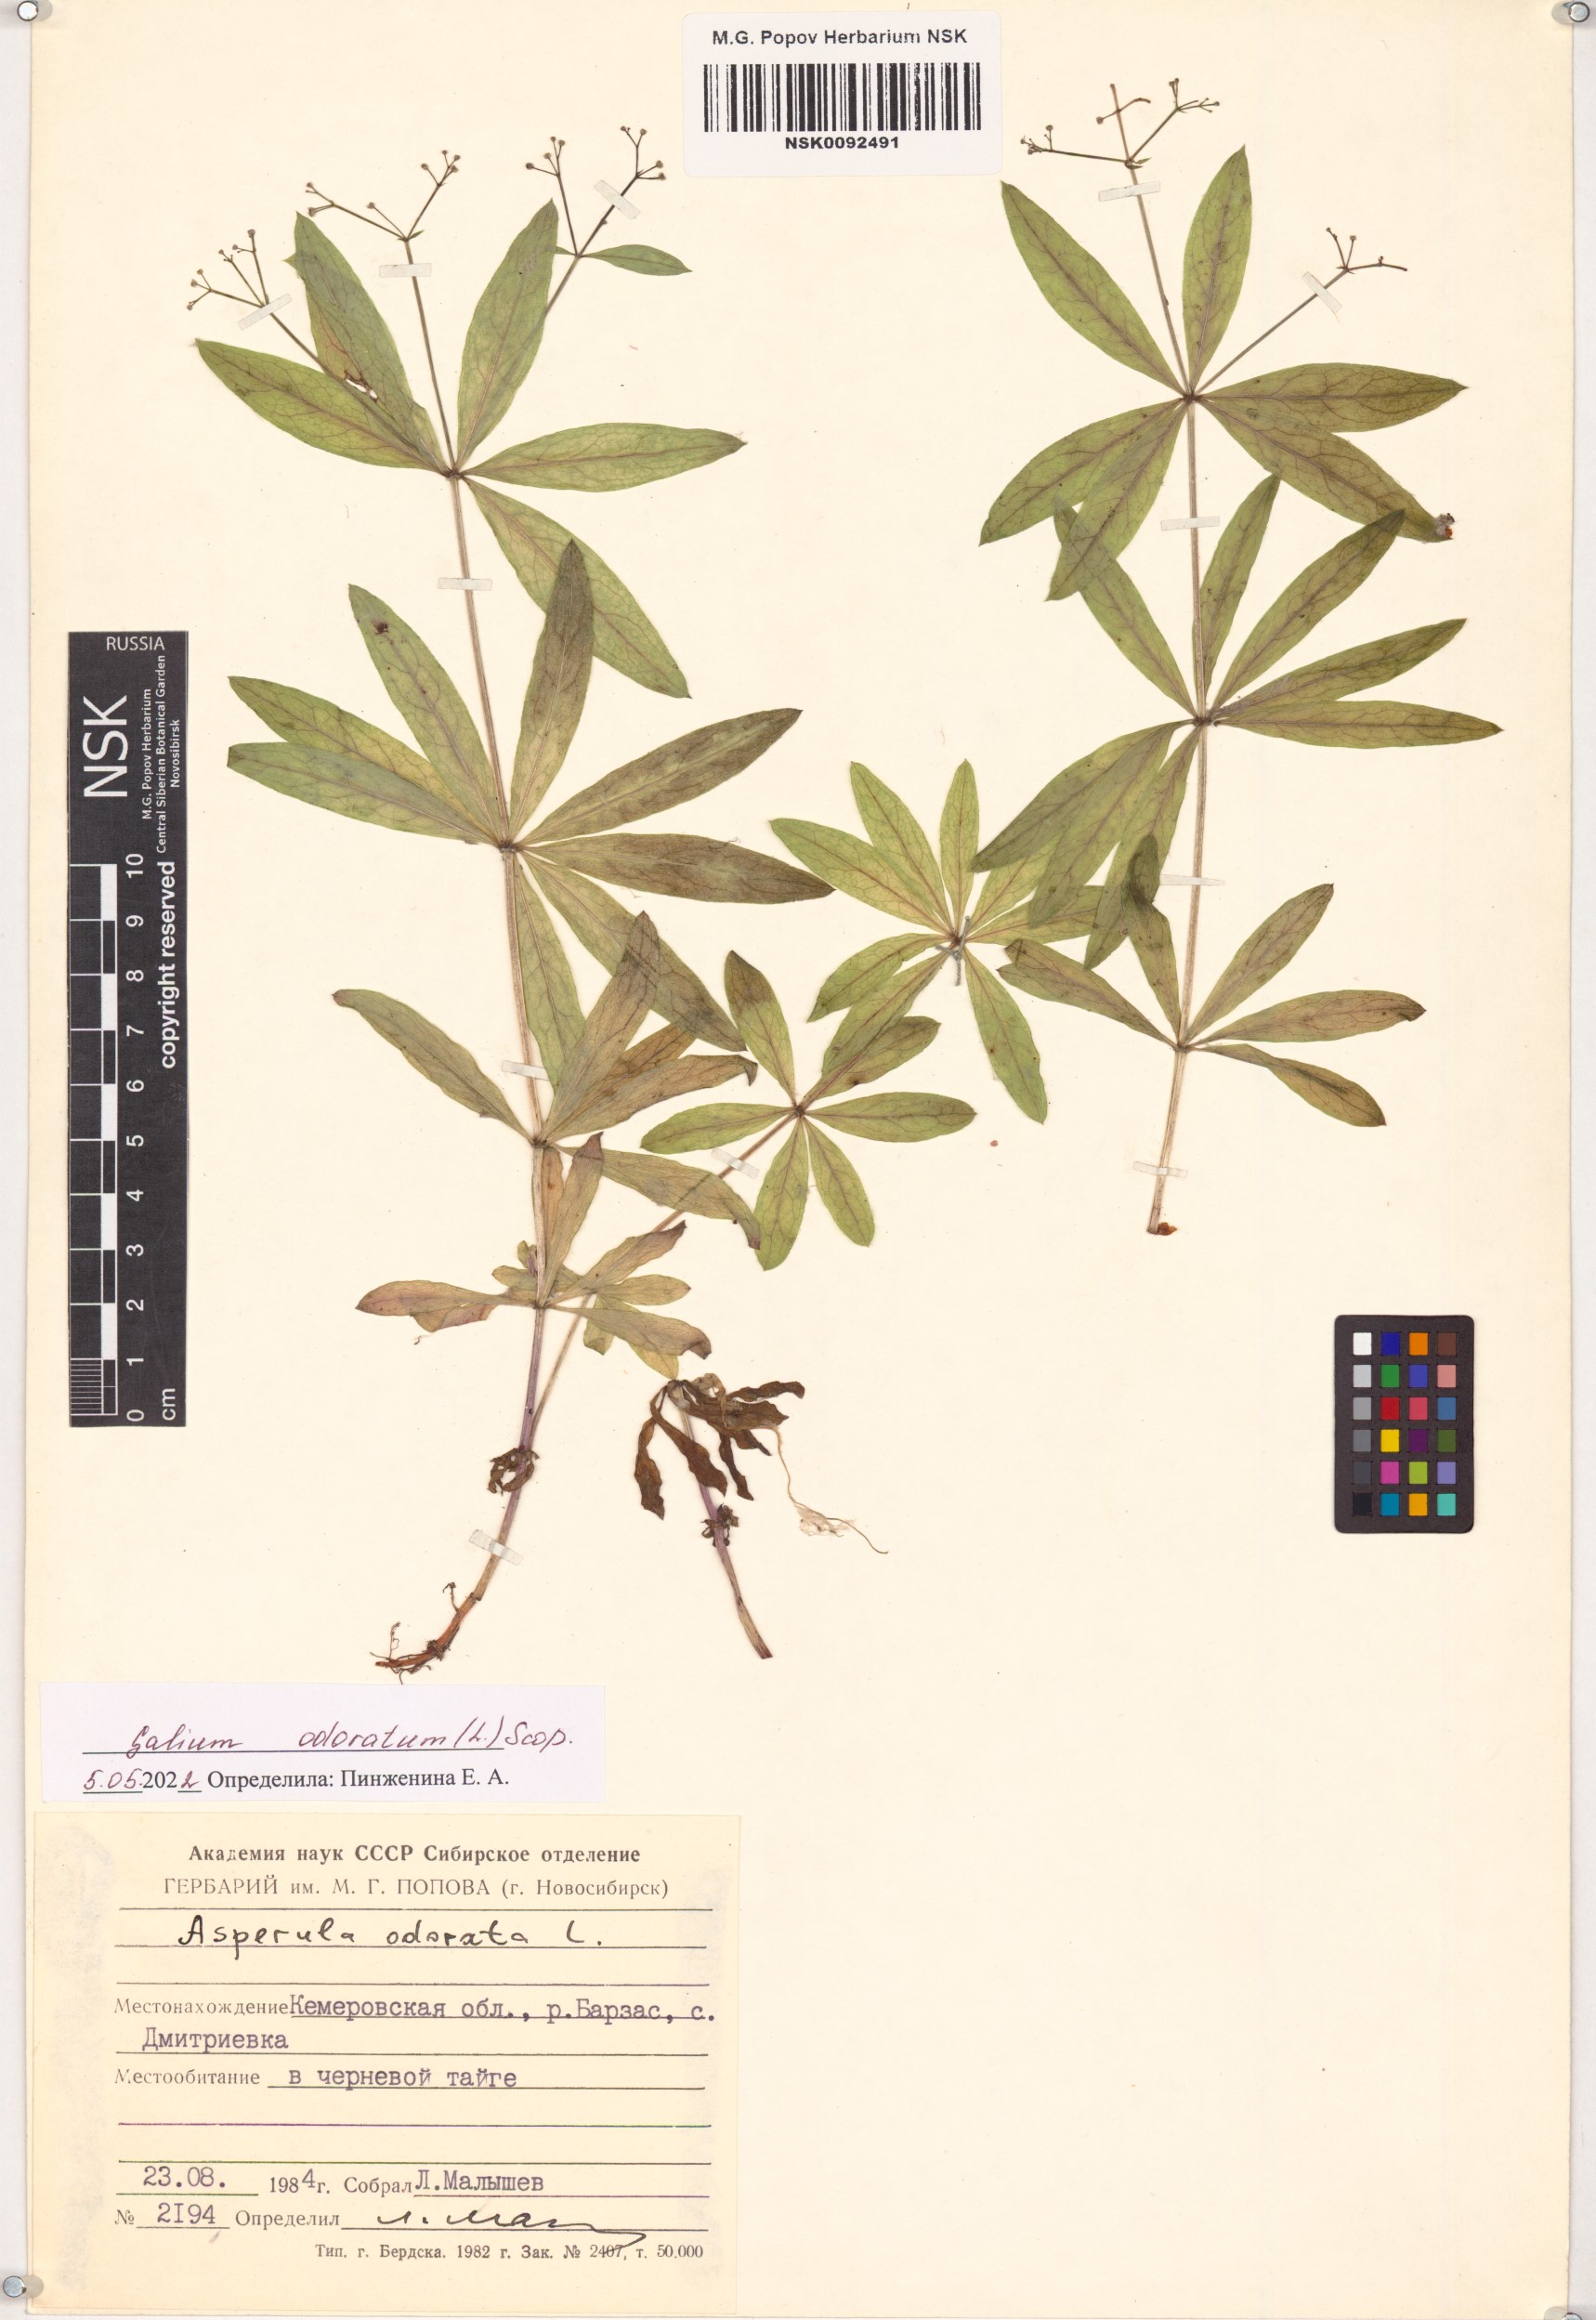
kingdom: Plantae
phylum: Tracheophyta
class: Magnoliopsida
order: Gentianales
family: Rubiaceae
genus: Galium
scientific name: Galium odoratum
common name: Sweet woodruff
